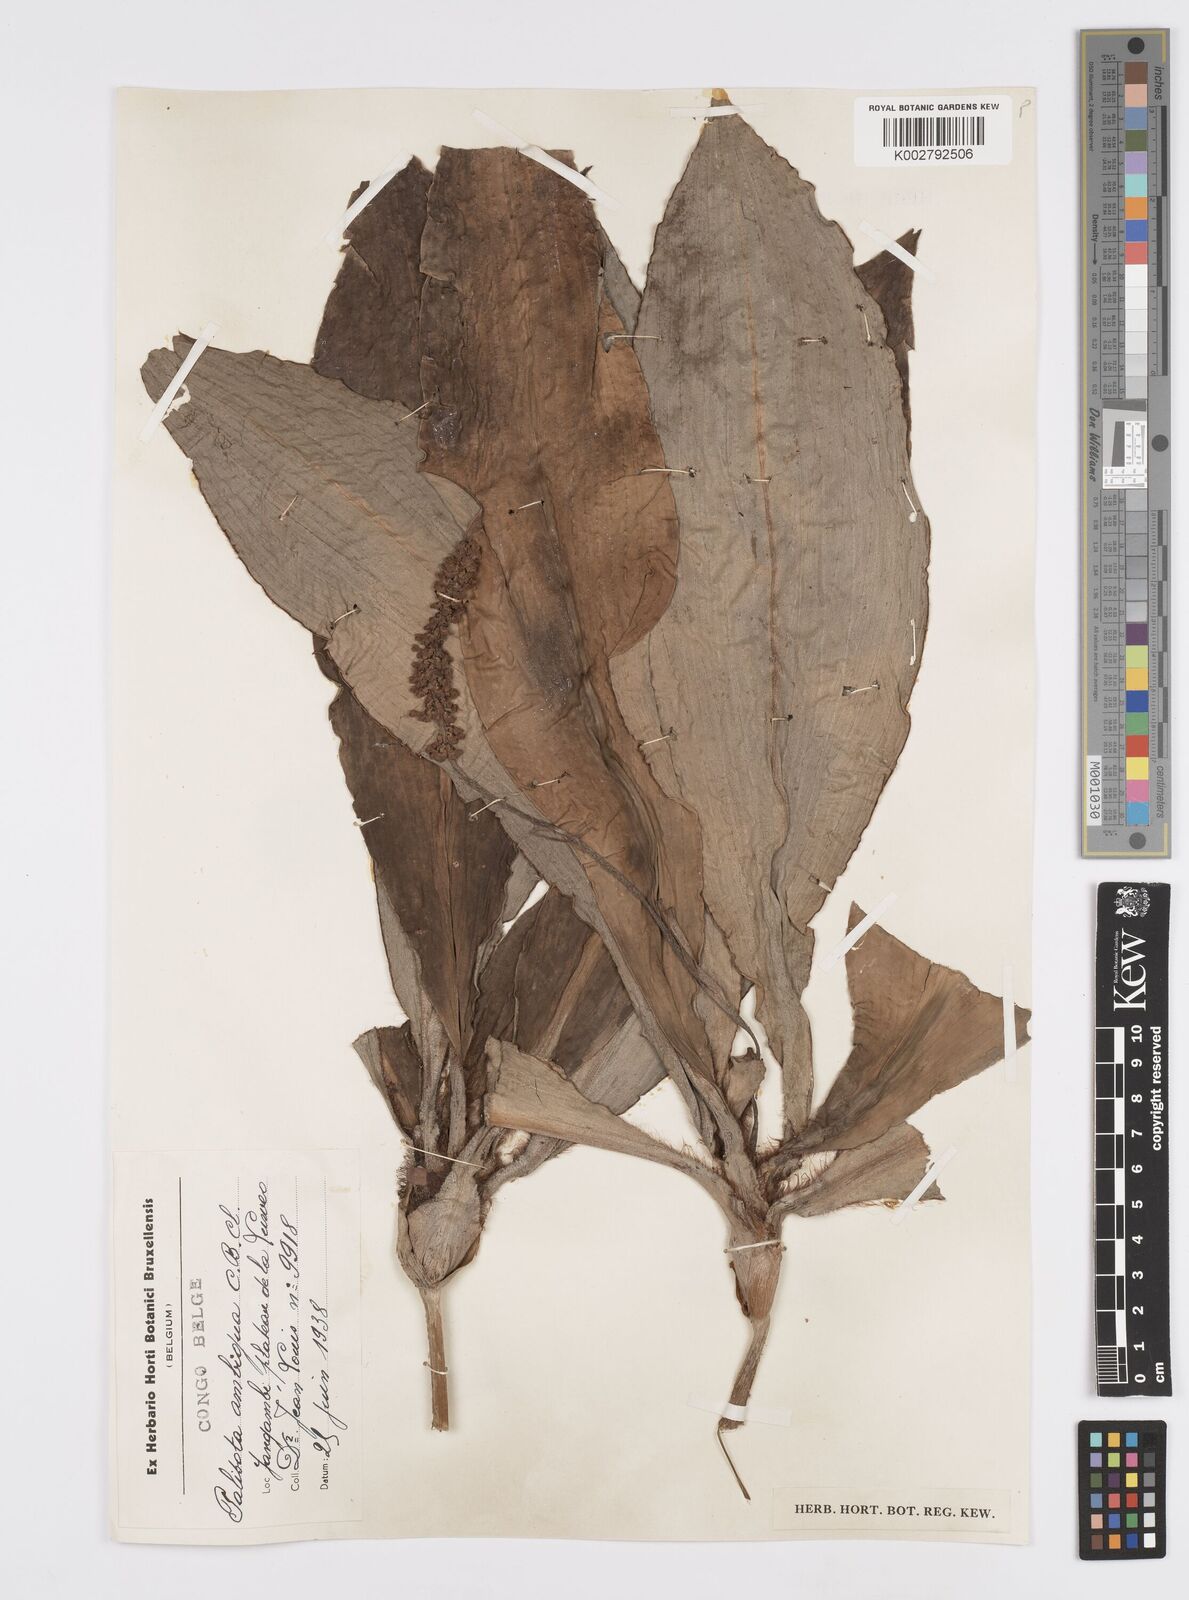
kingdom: Plantae
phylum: Tracheophyta
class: Liliopsida
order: Commelinales
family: Commelinaceae
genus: Palisota
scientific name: Palisota ambigua
